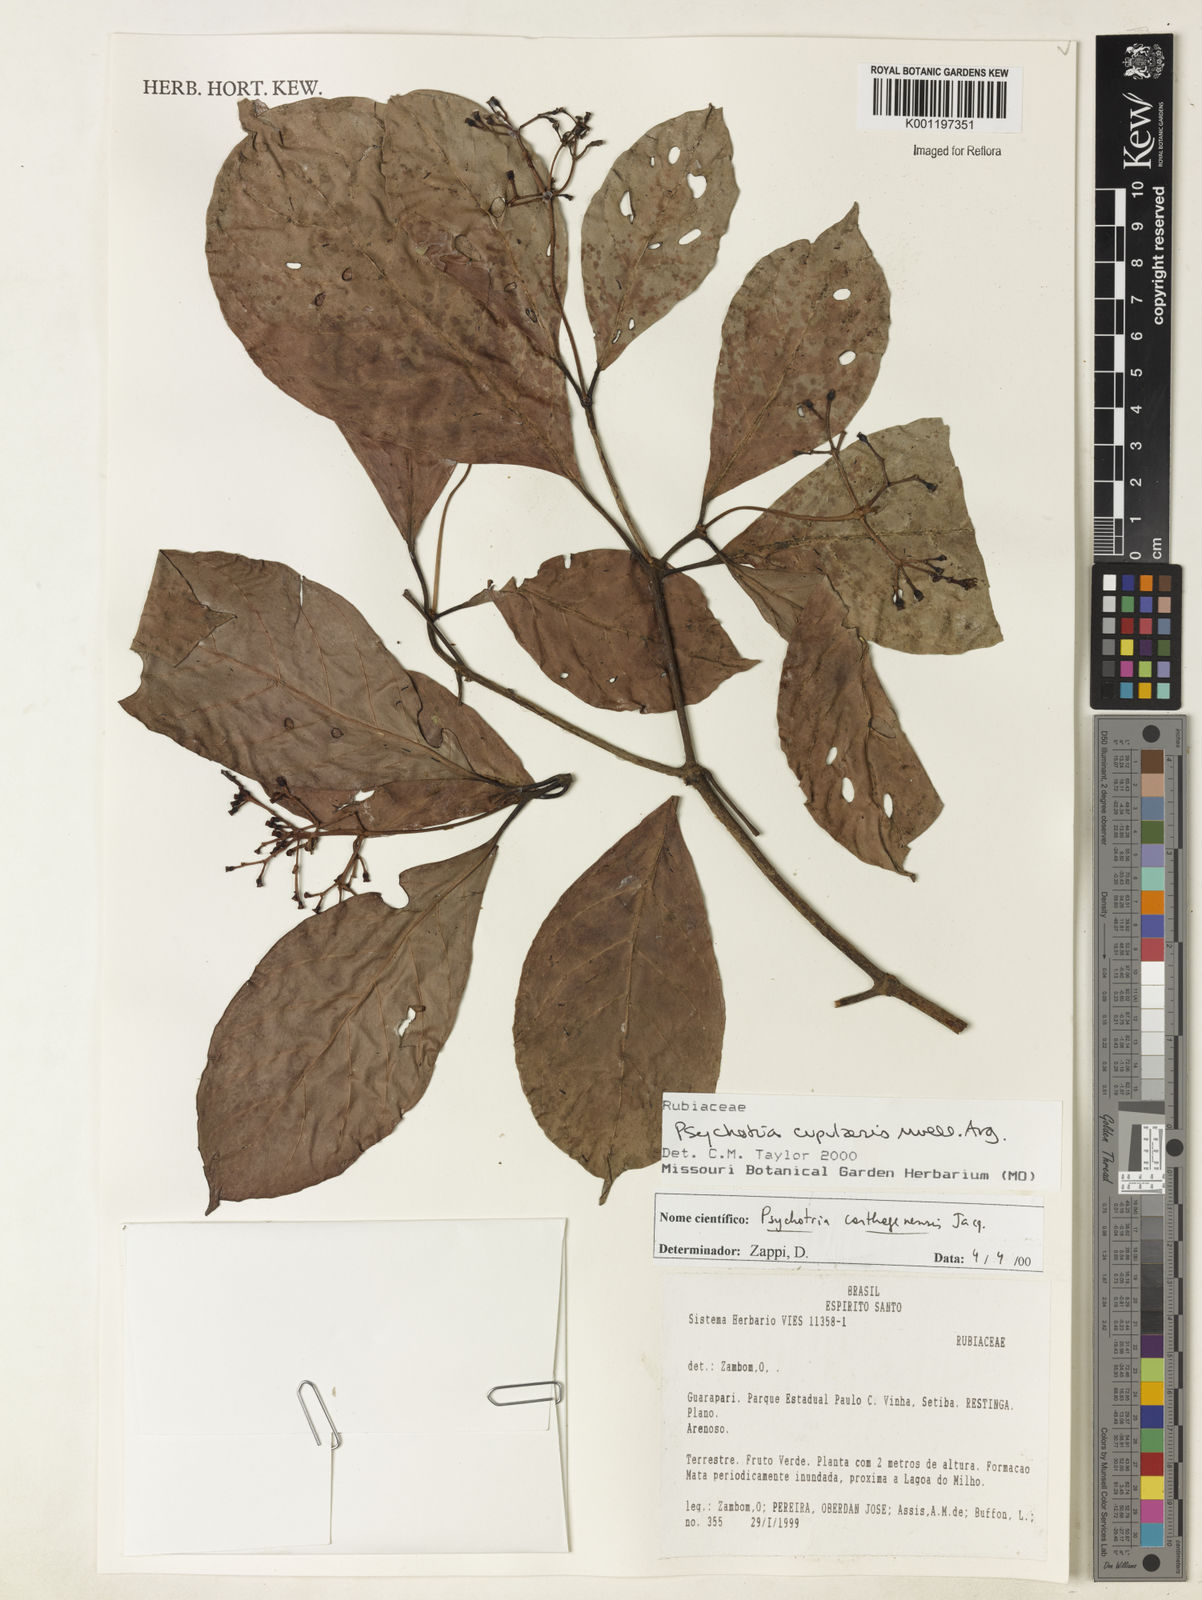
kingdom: Plantae
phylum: Tracheophyta
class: Magnoliopsida
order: Gentianales
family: Rubiaceae
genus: Psychotria
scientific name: Psychotria
